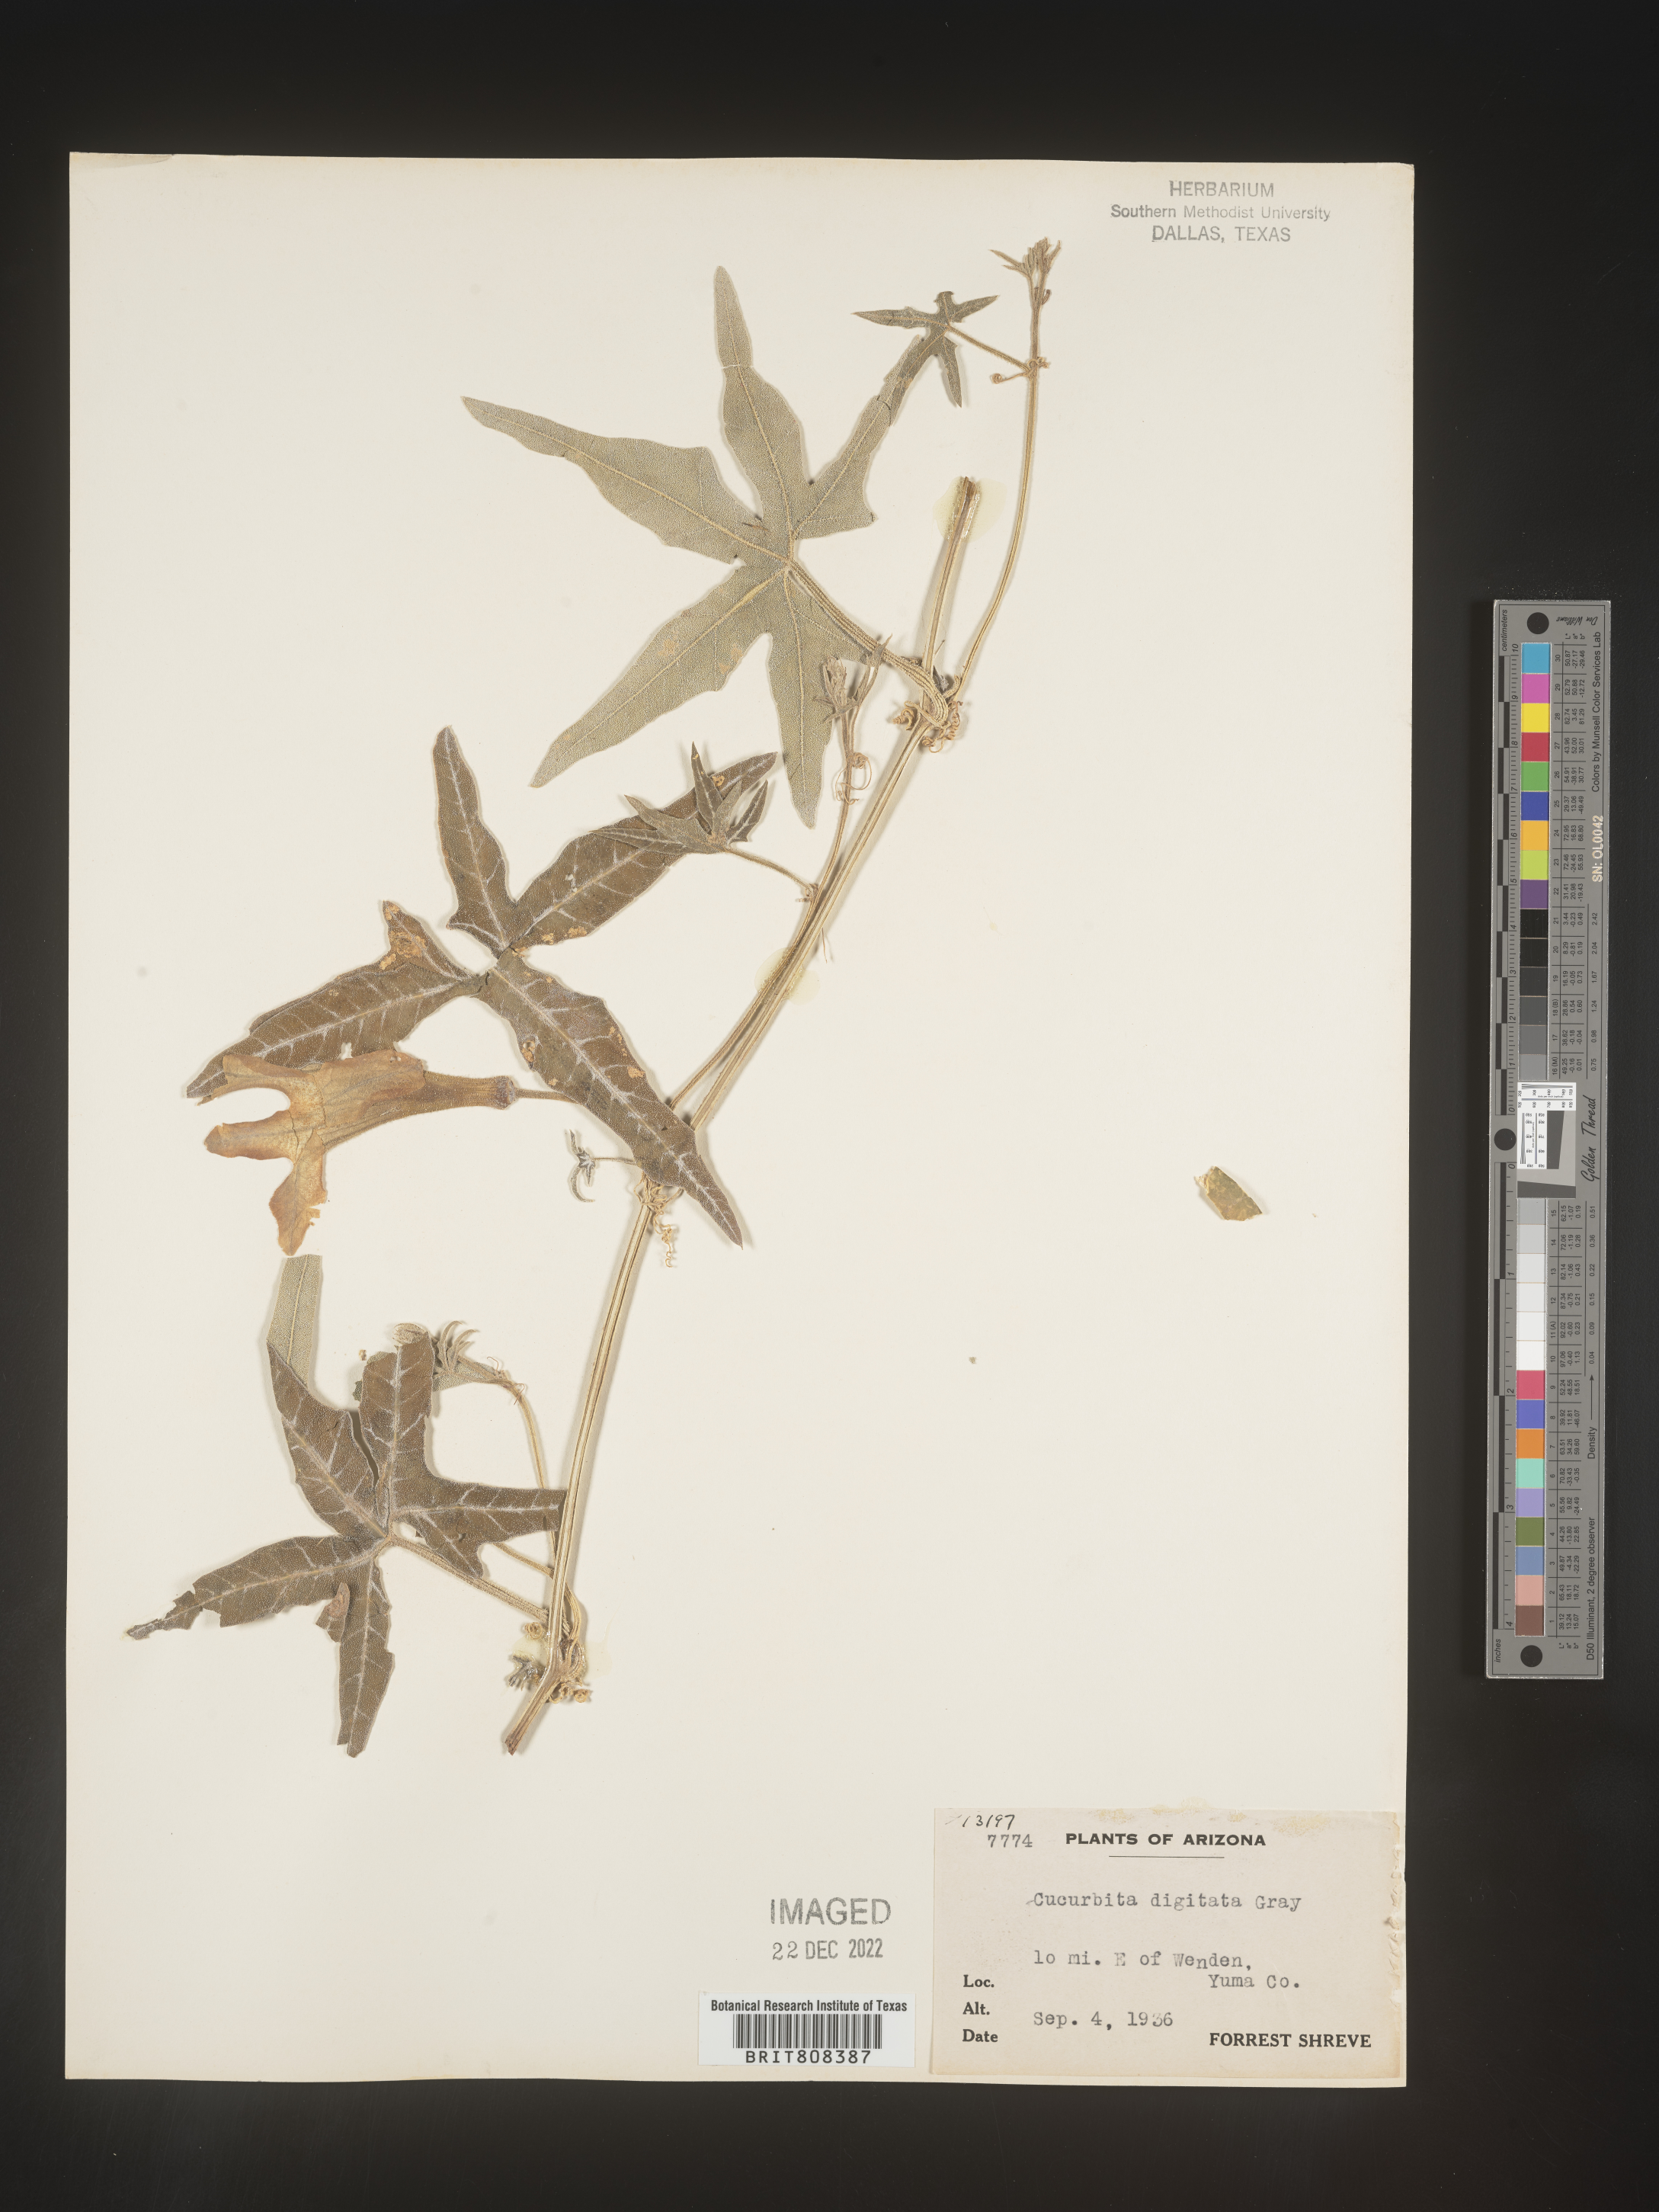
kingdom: Plantae
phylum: Tracheophyta
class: Magnoliopsida
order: Cucurbitales
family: Cucurbitaceae
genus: Cucurbita
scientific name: Cucurbita digitata
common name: Finger-leaf gourd
